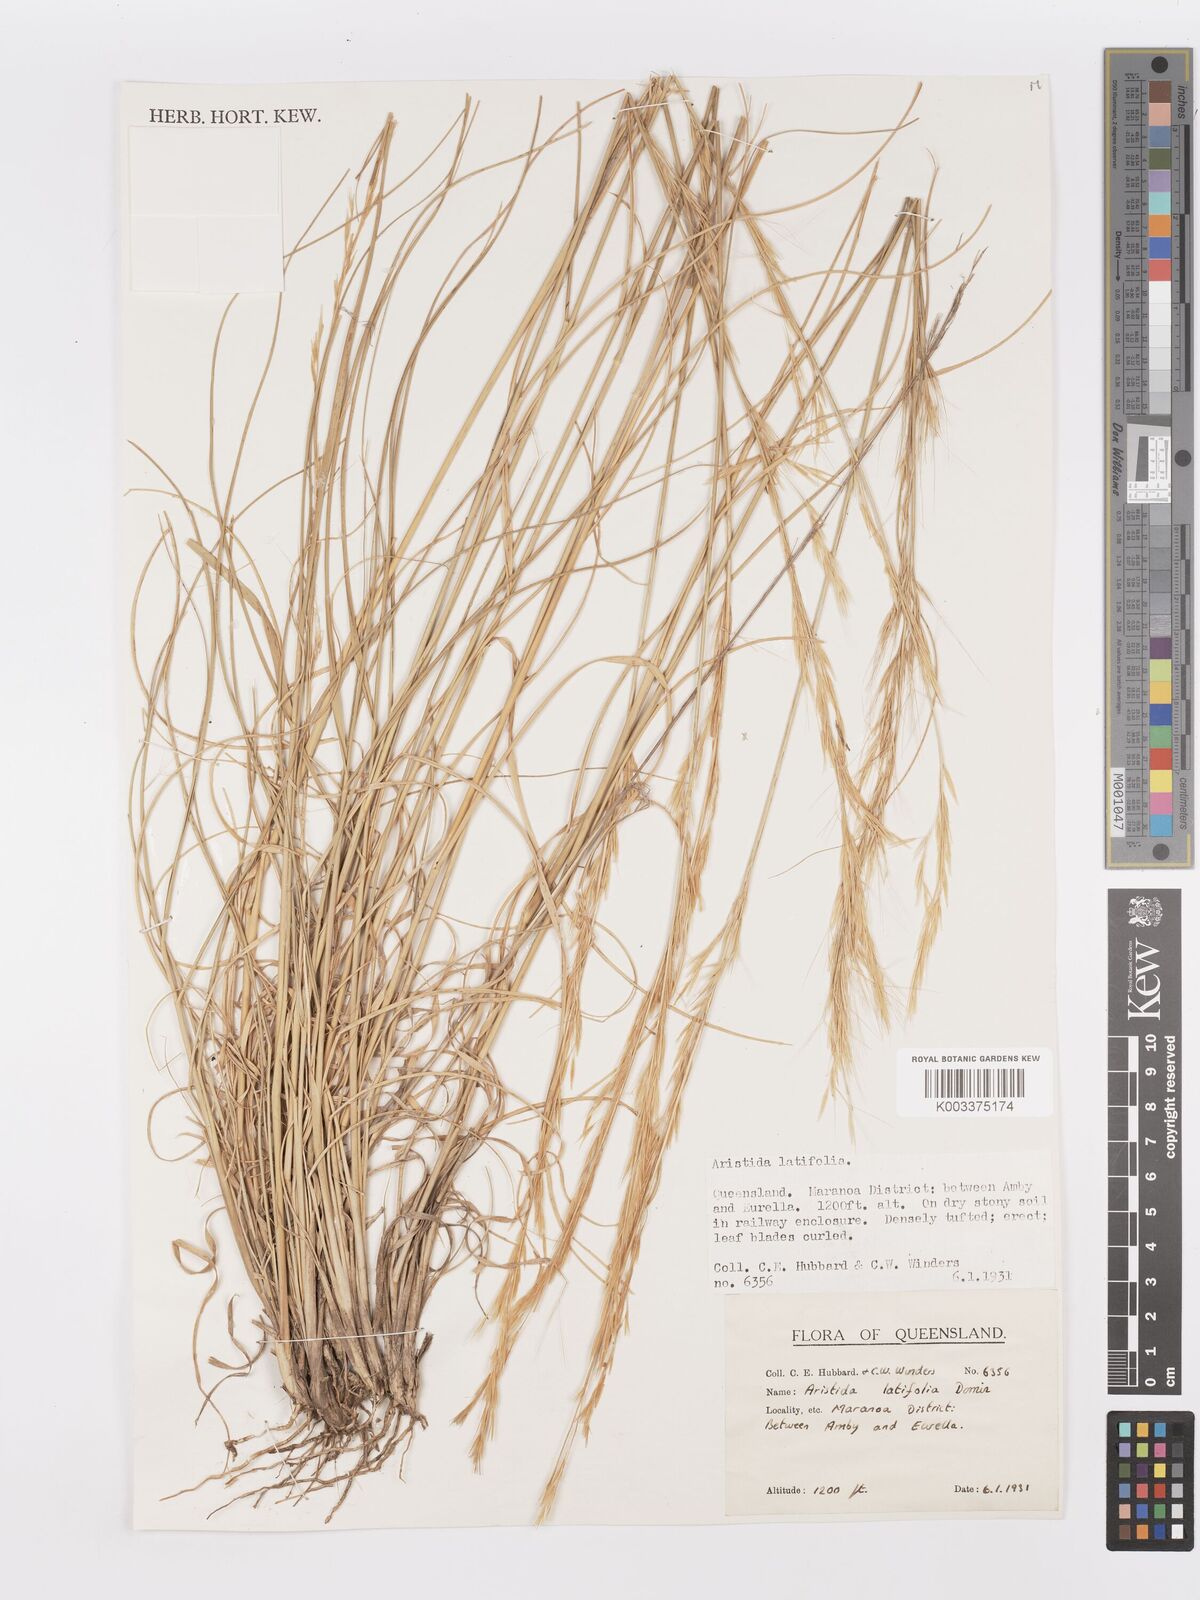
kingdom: Plantae
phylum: Tracheophyta
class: Liliopsida
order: Poales
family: Poaceae
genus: Aristida
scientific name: Aristida latifolia
